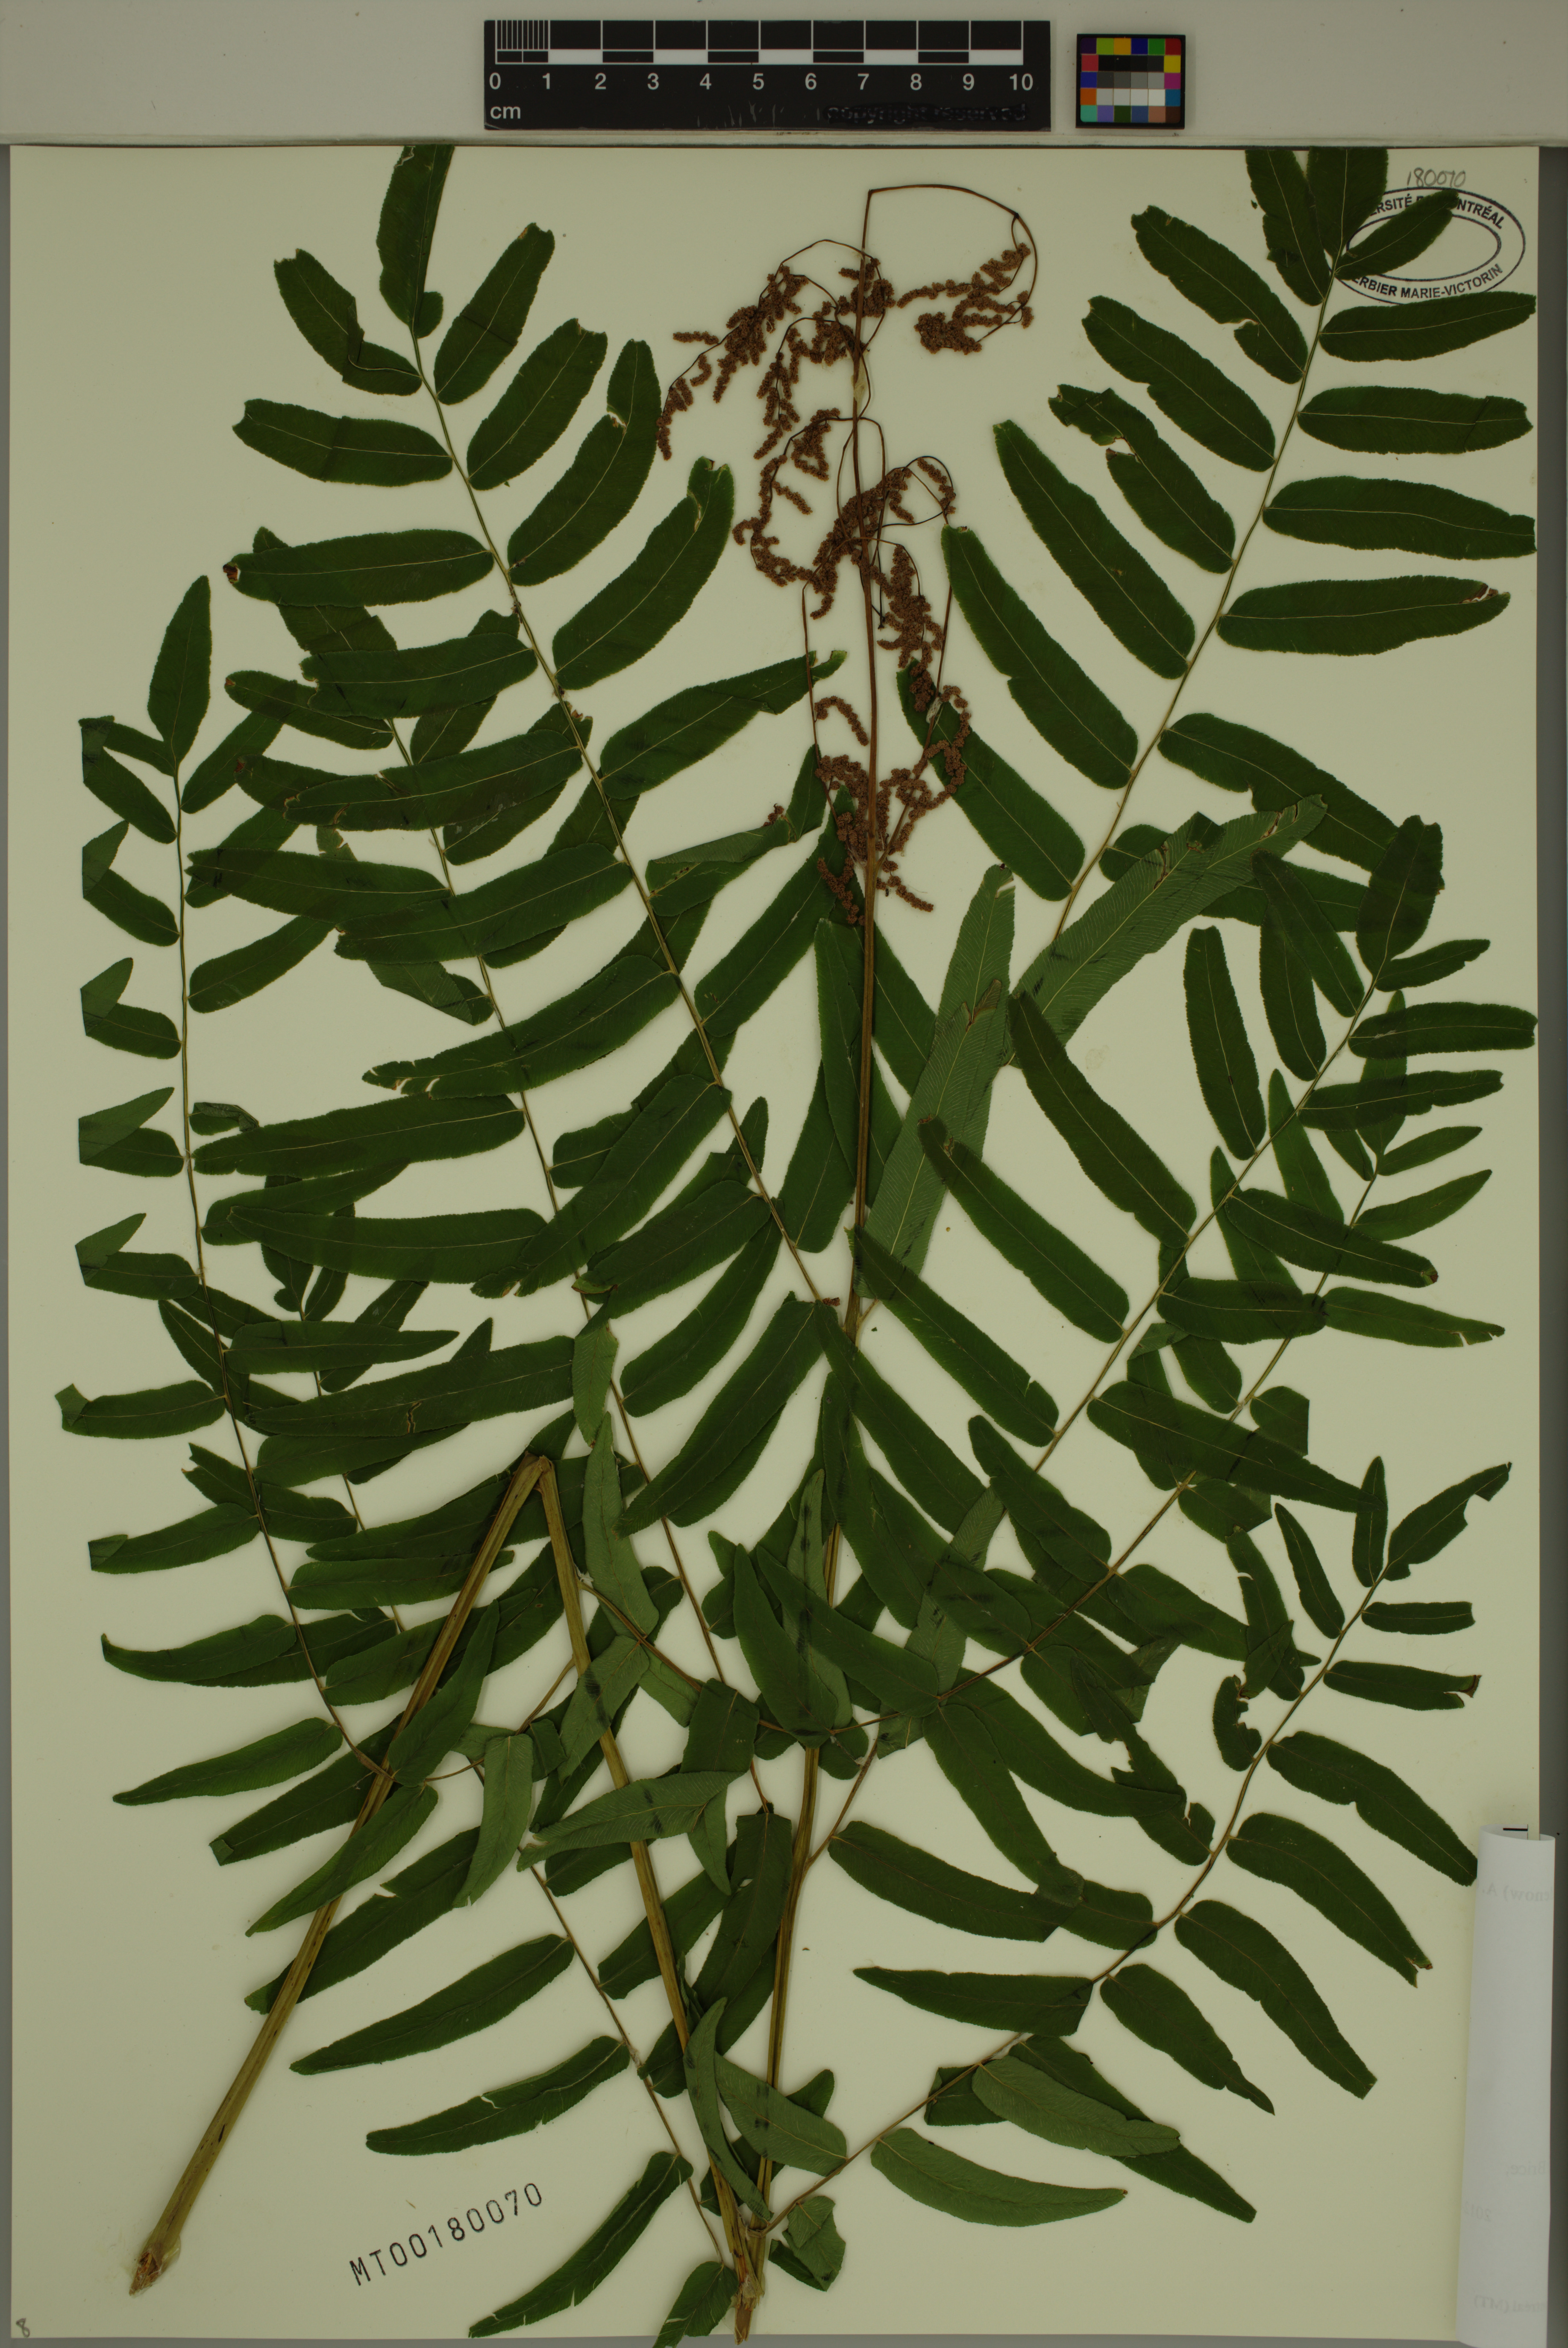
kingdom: Plantae
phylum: Tracheophyta
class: Polypodiopsida
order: Osmundales
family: Osmundaceae
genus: Osmunda
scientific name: Osmunda spectabilis
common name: American royal fern
